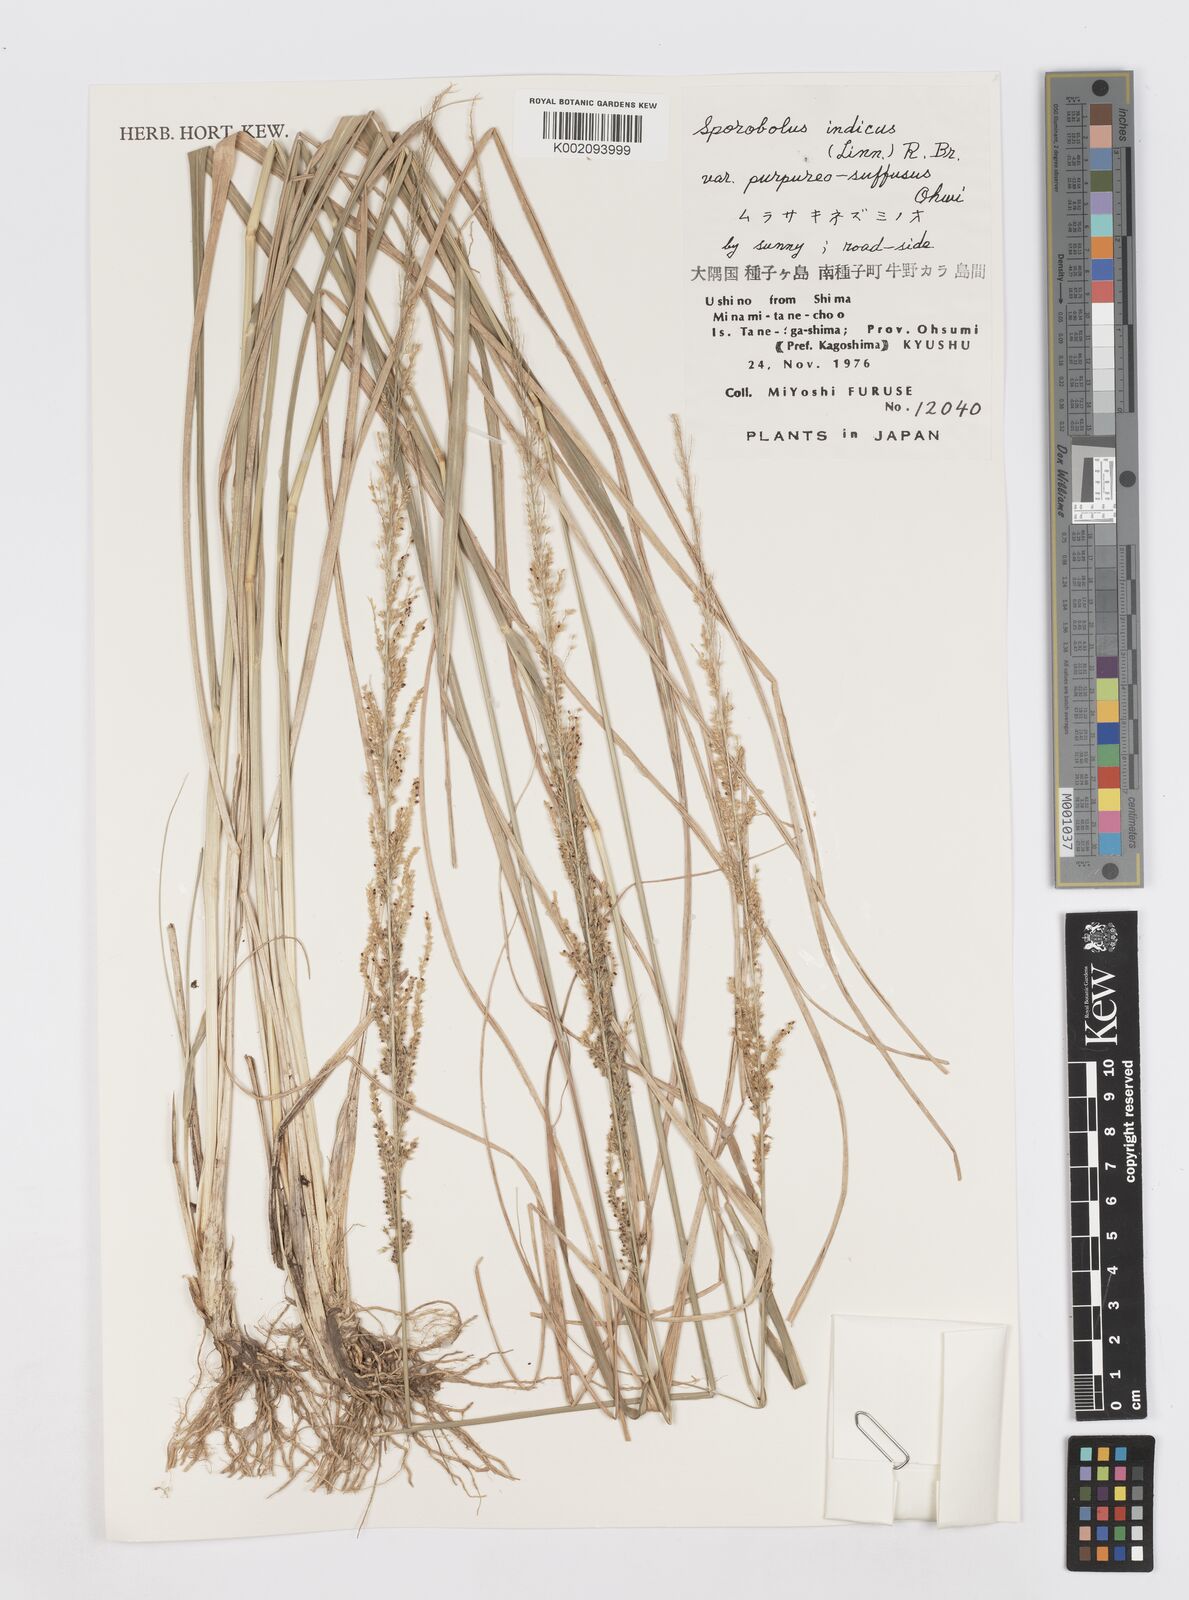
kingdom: Plantae
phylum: Tracheophyta
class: Liliopsida
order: Poales
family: Poaceae
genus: Sporobolus
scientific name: Sporobolus fertilis
